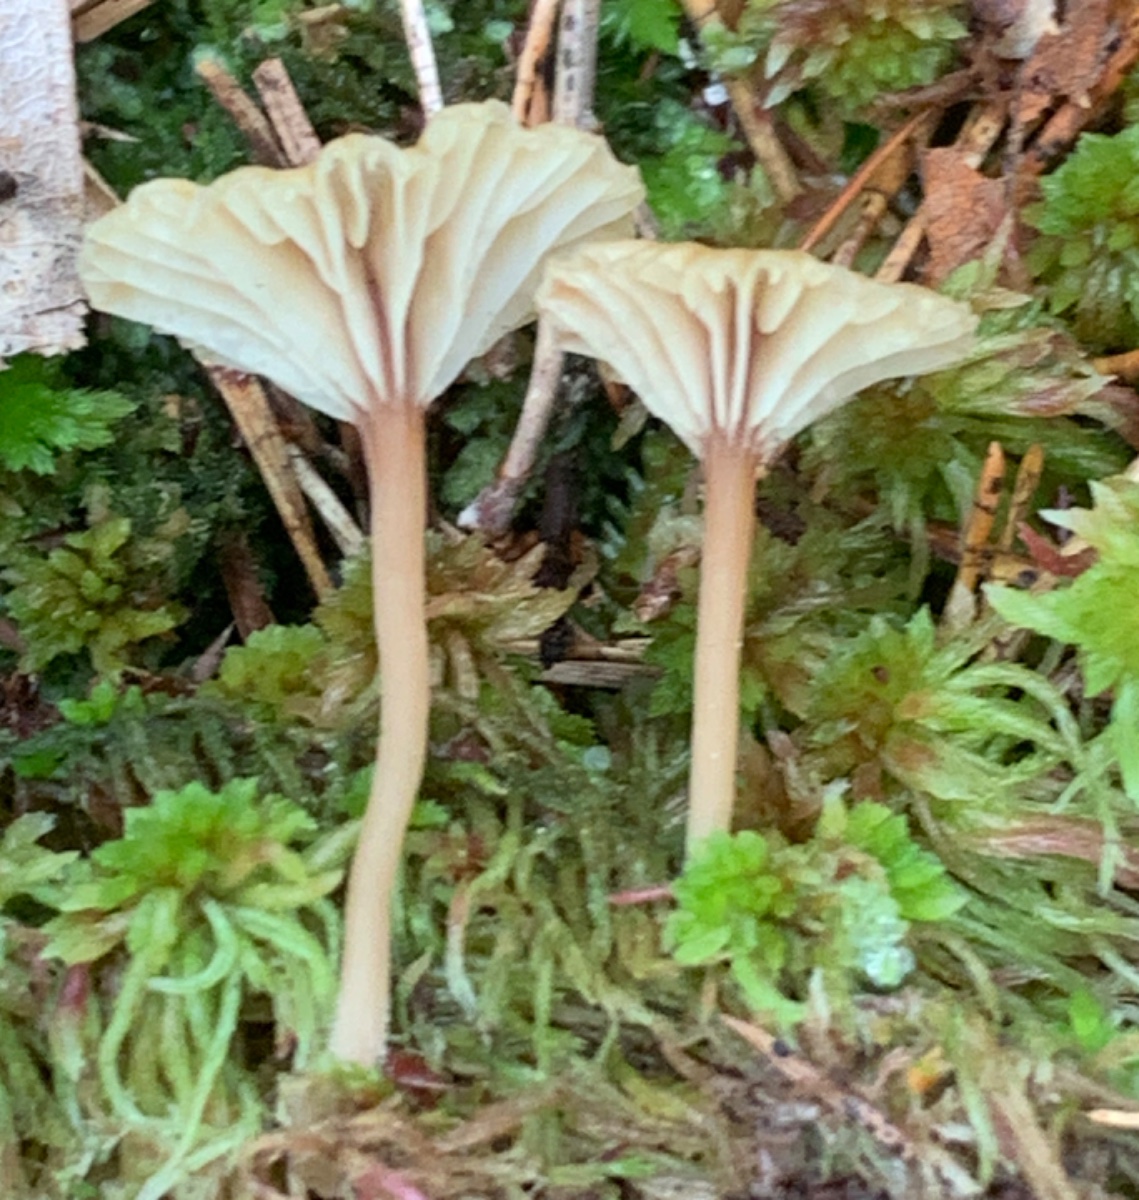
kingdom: Fungi
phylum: Basidiomycota
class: Agaricomycetes
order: Agaricales
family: Hygrophoraceae
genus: Lichenomphalia
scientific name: Lichenomphalia umbellifera
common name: tørve-lavhat
